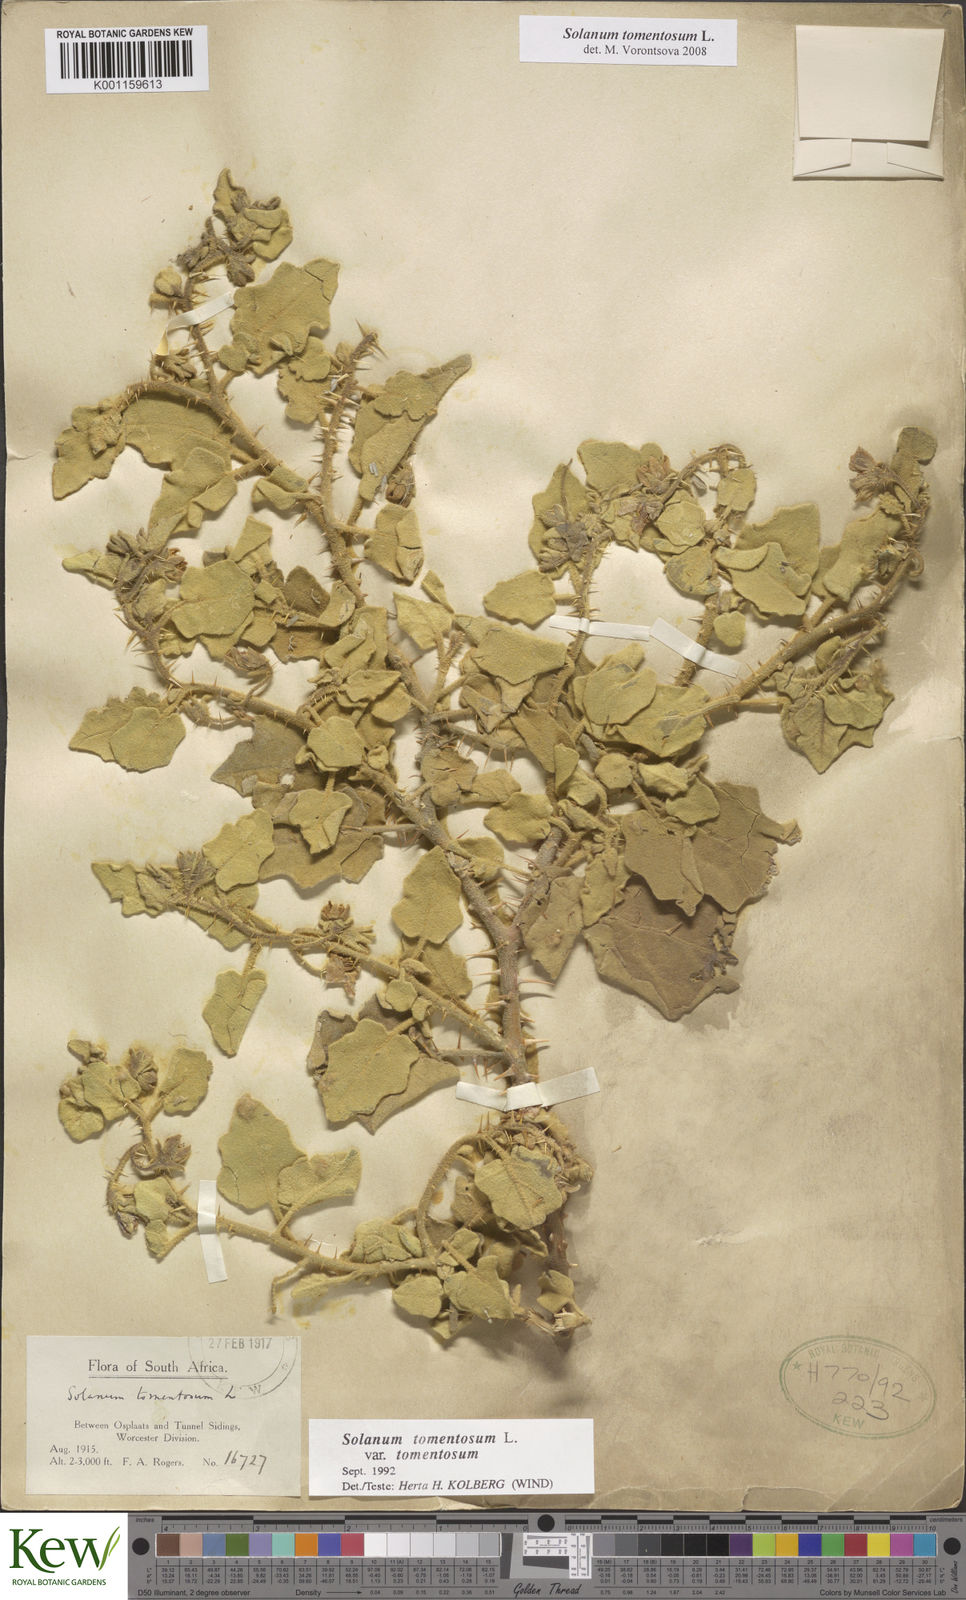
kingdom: Plantae
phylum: Tracheophyta
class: Magnoliopsida
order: Solanales
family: Solanaceae
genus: Solanum
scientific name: Solanum tomentosum
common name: Wild aubergine
